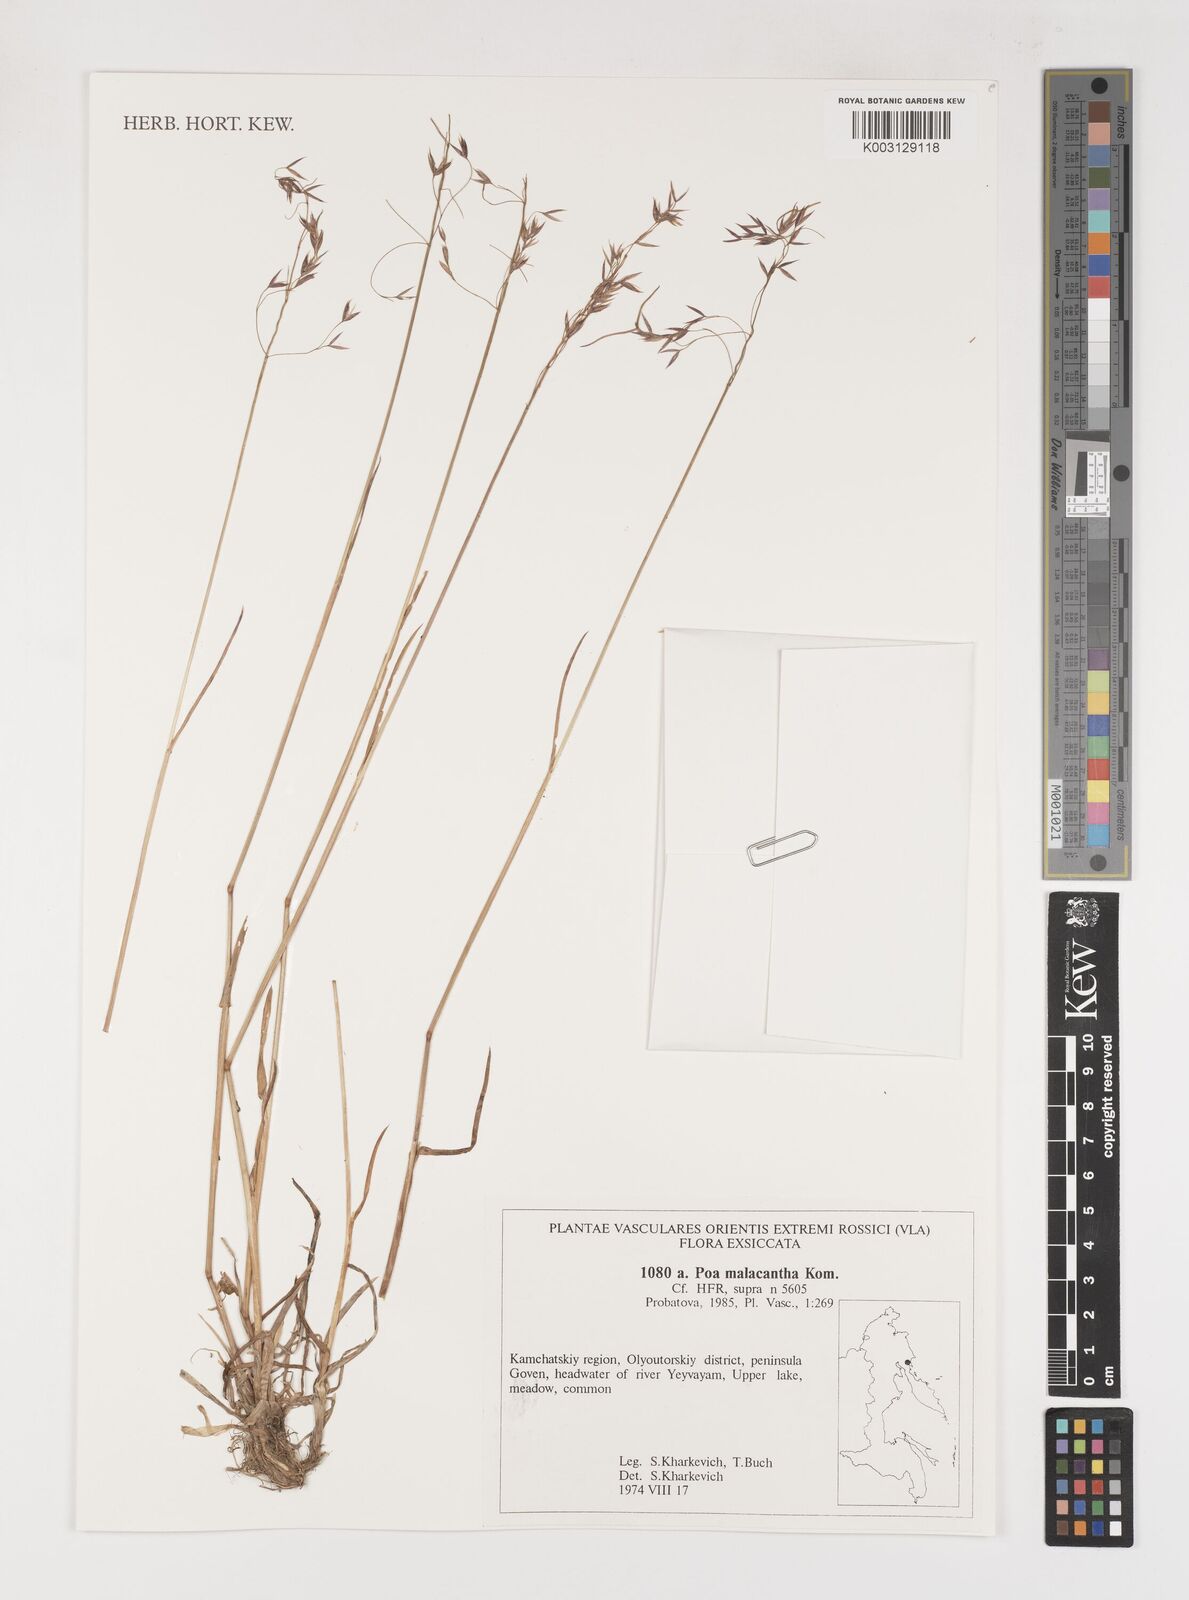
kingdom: Plantae
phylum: Tracheophyta
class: Liliopsida
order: Poales
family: Poaceae
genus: Poa
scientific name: Poa arctica
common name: Arctic bluegrass
